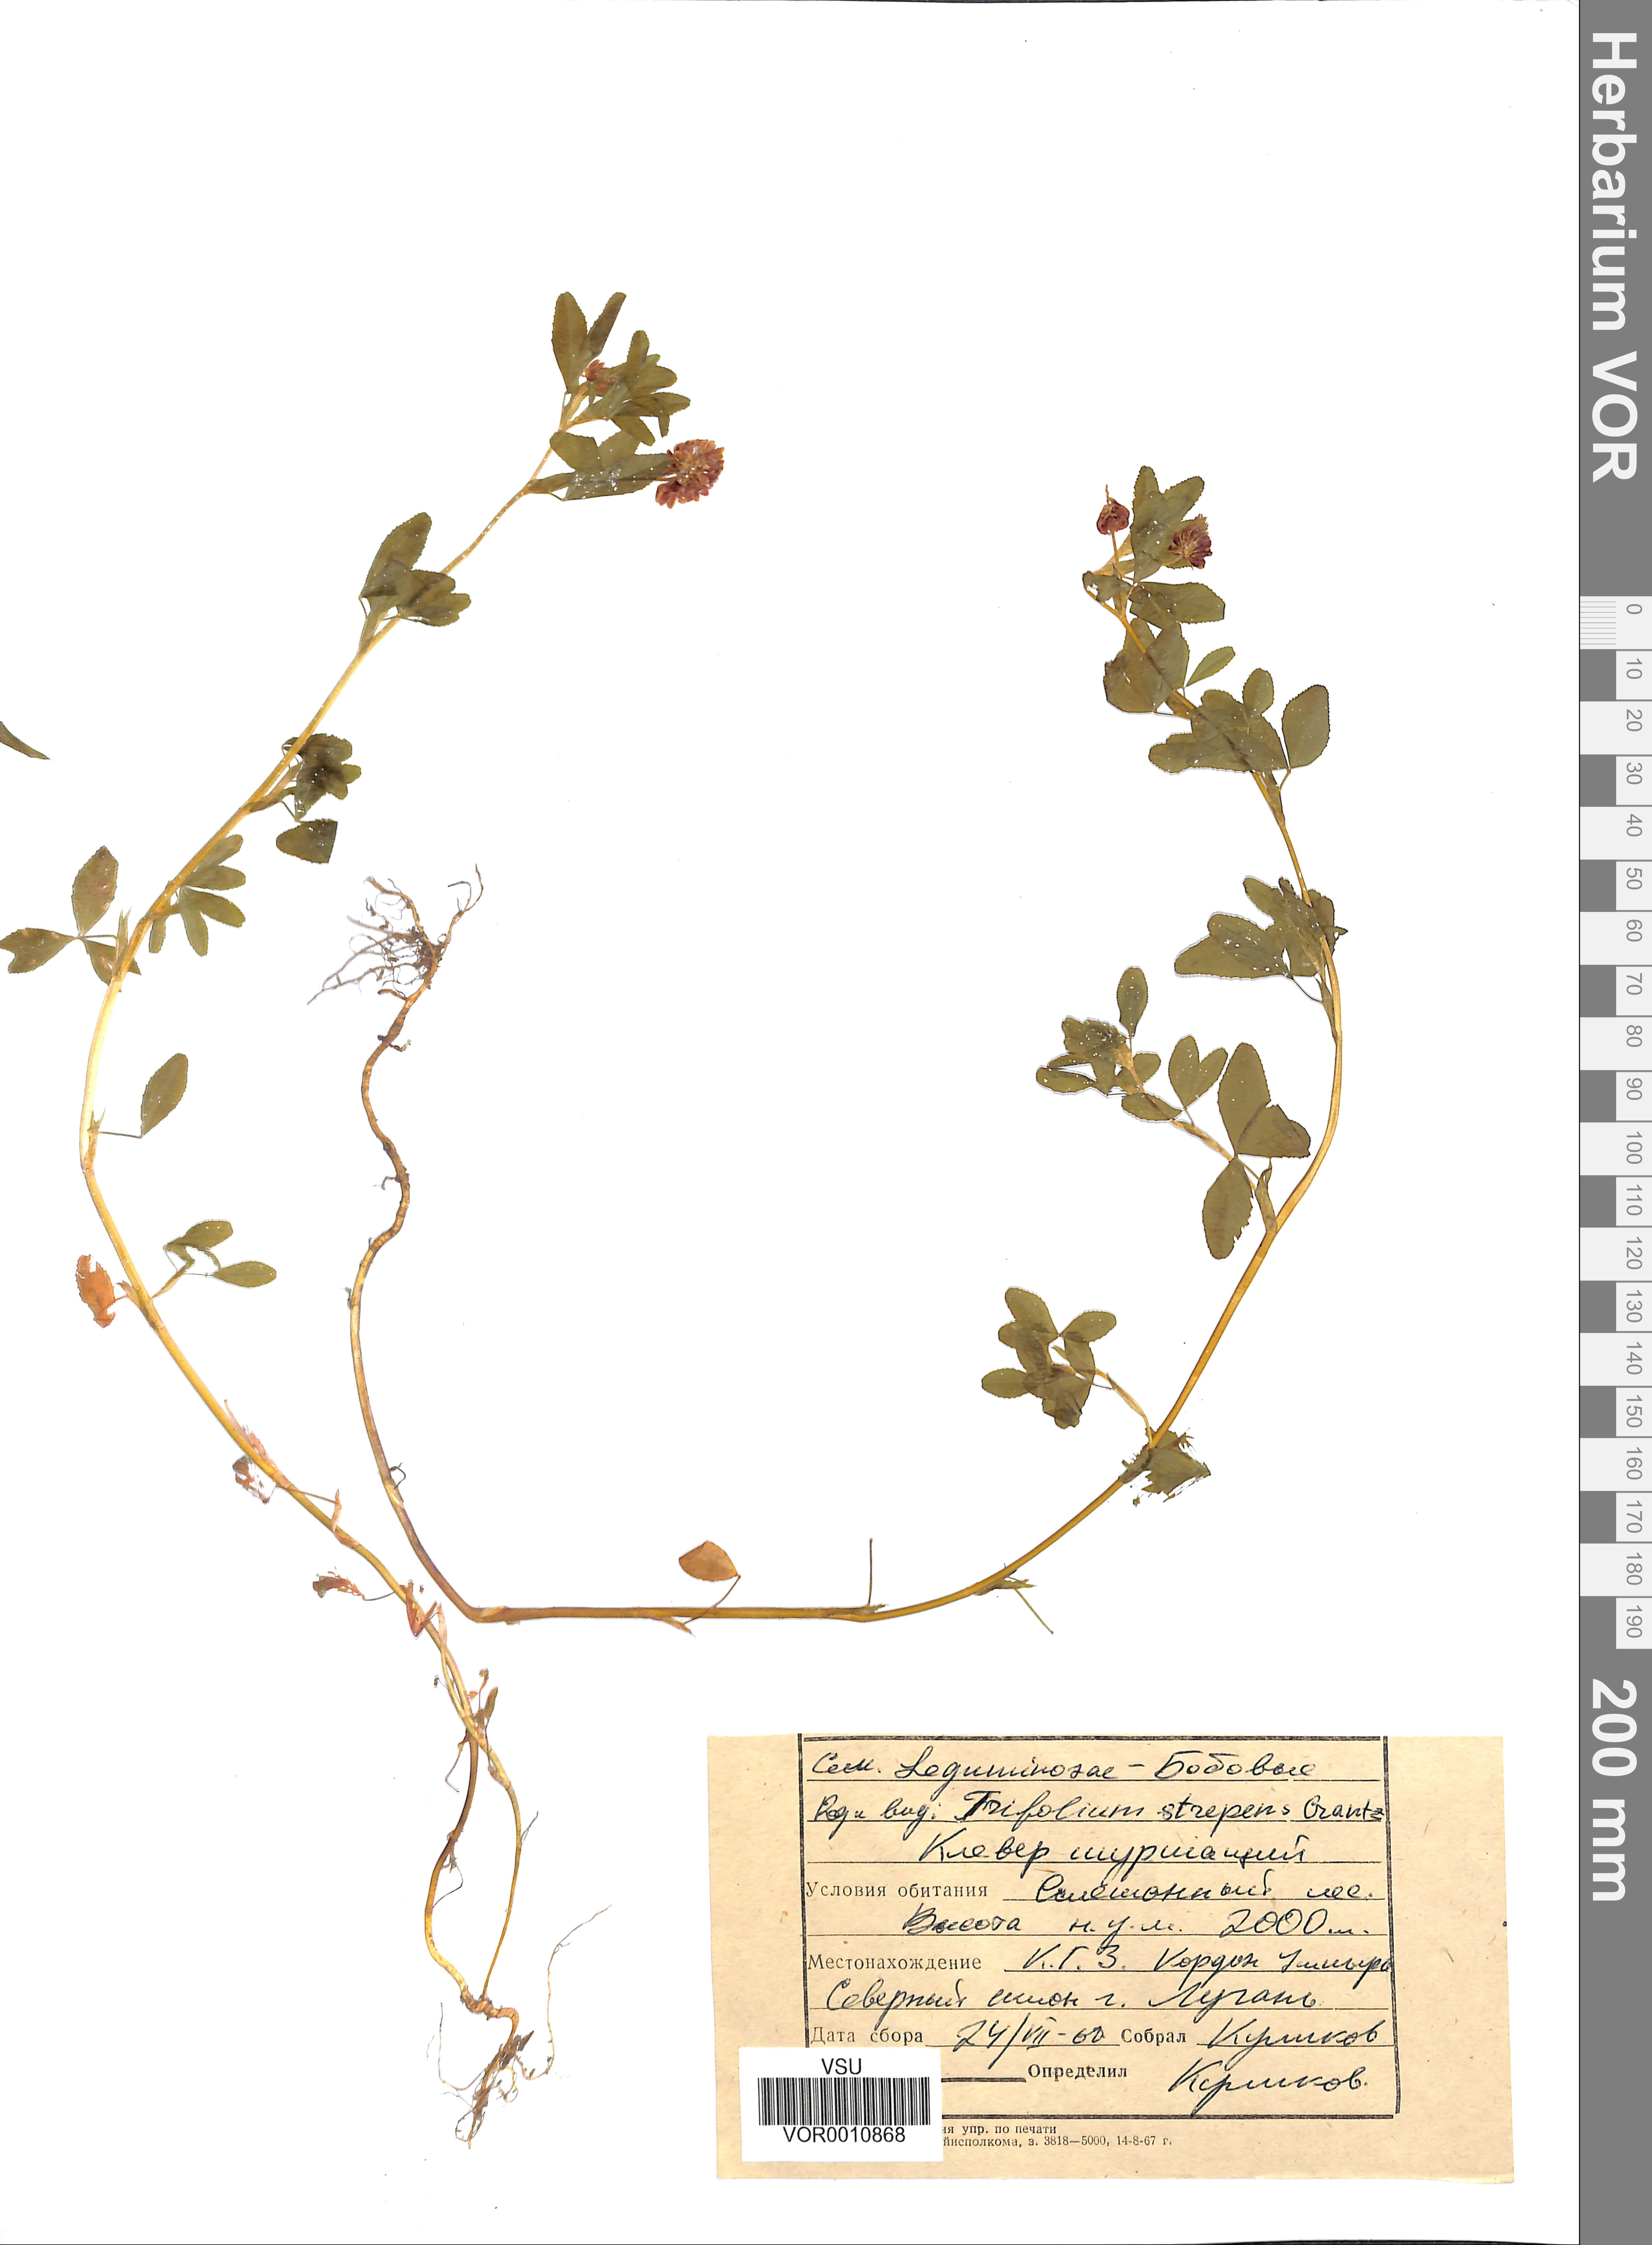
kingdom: Plantae
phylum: Tracheophyta
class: Magnoliopsida
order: Fabales
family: Fabaceae
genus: Trifolium
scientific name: Trifolium aureum
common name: Golden clover
